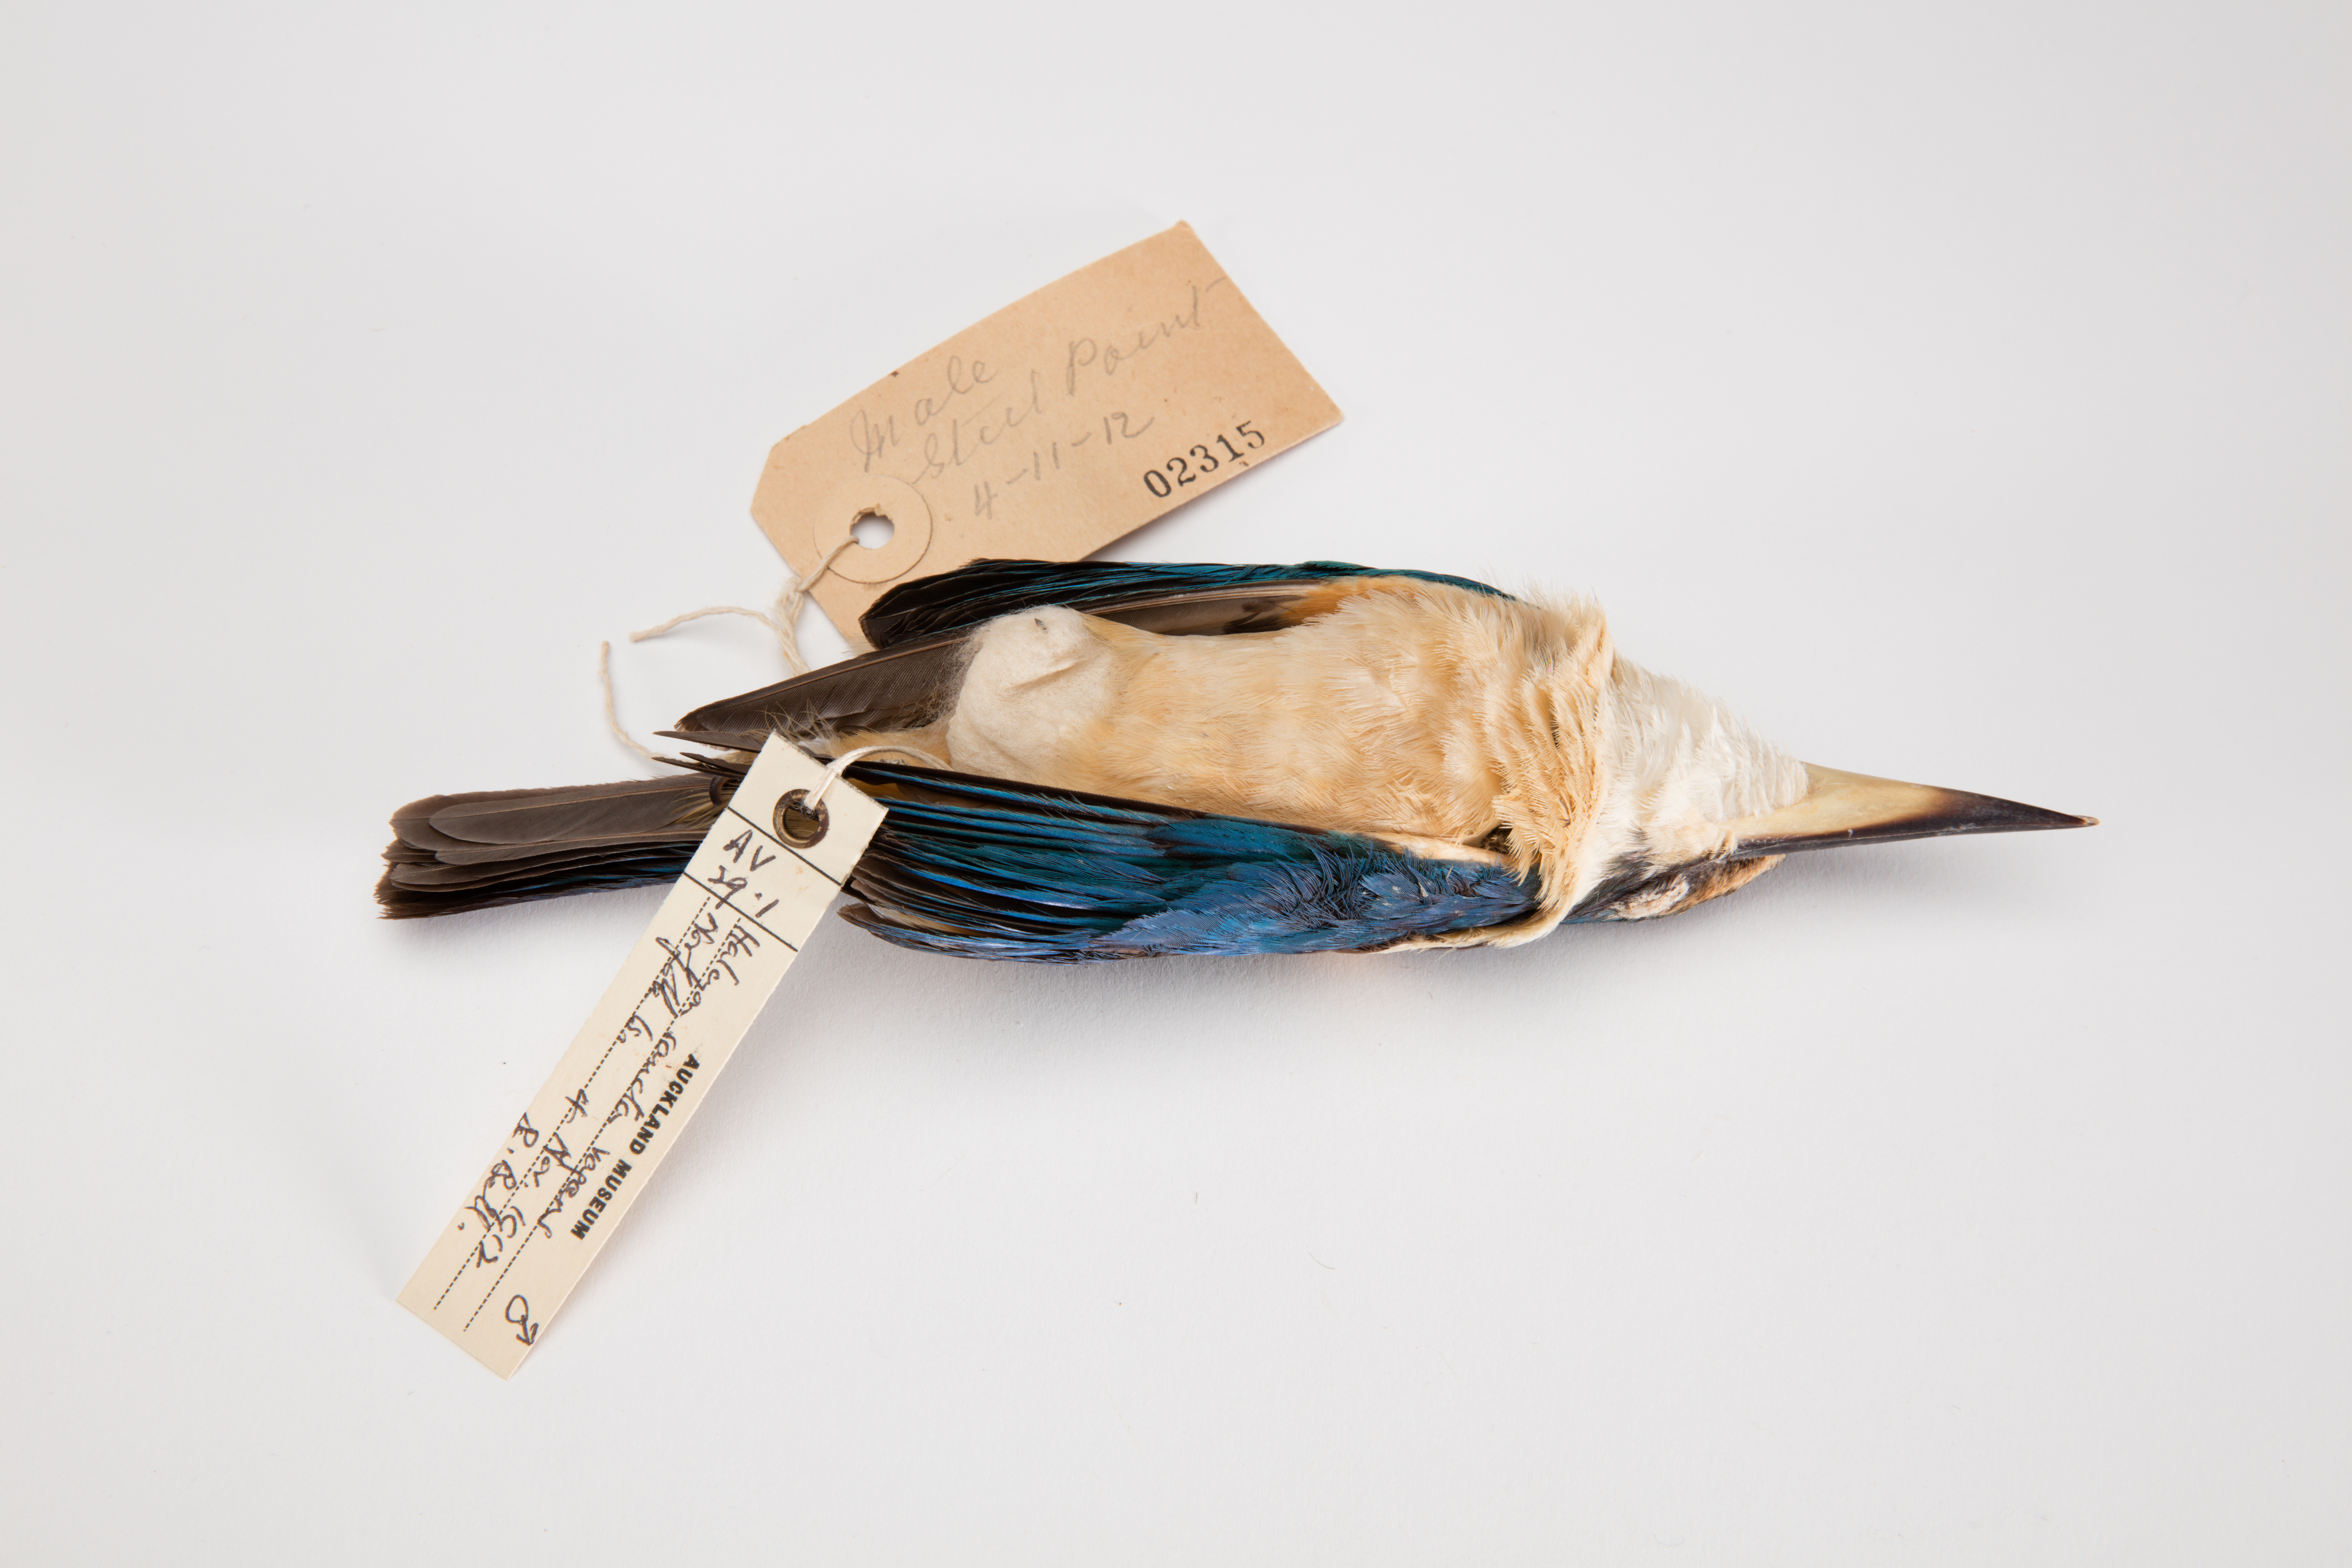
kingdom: Animalia
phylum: Chordata
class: Aves
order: Coraciiformes
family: Alcedinidae
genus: Todiramphus
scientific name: Todiramphus sanctus
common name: Sacred kingfisher
